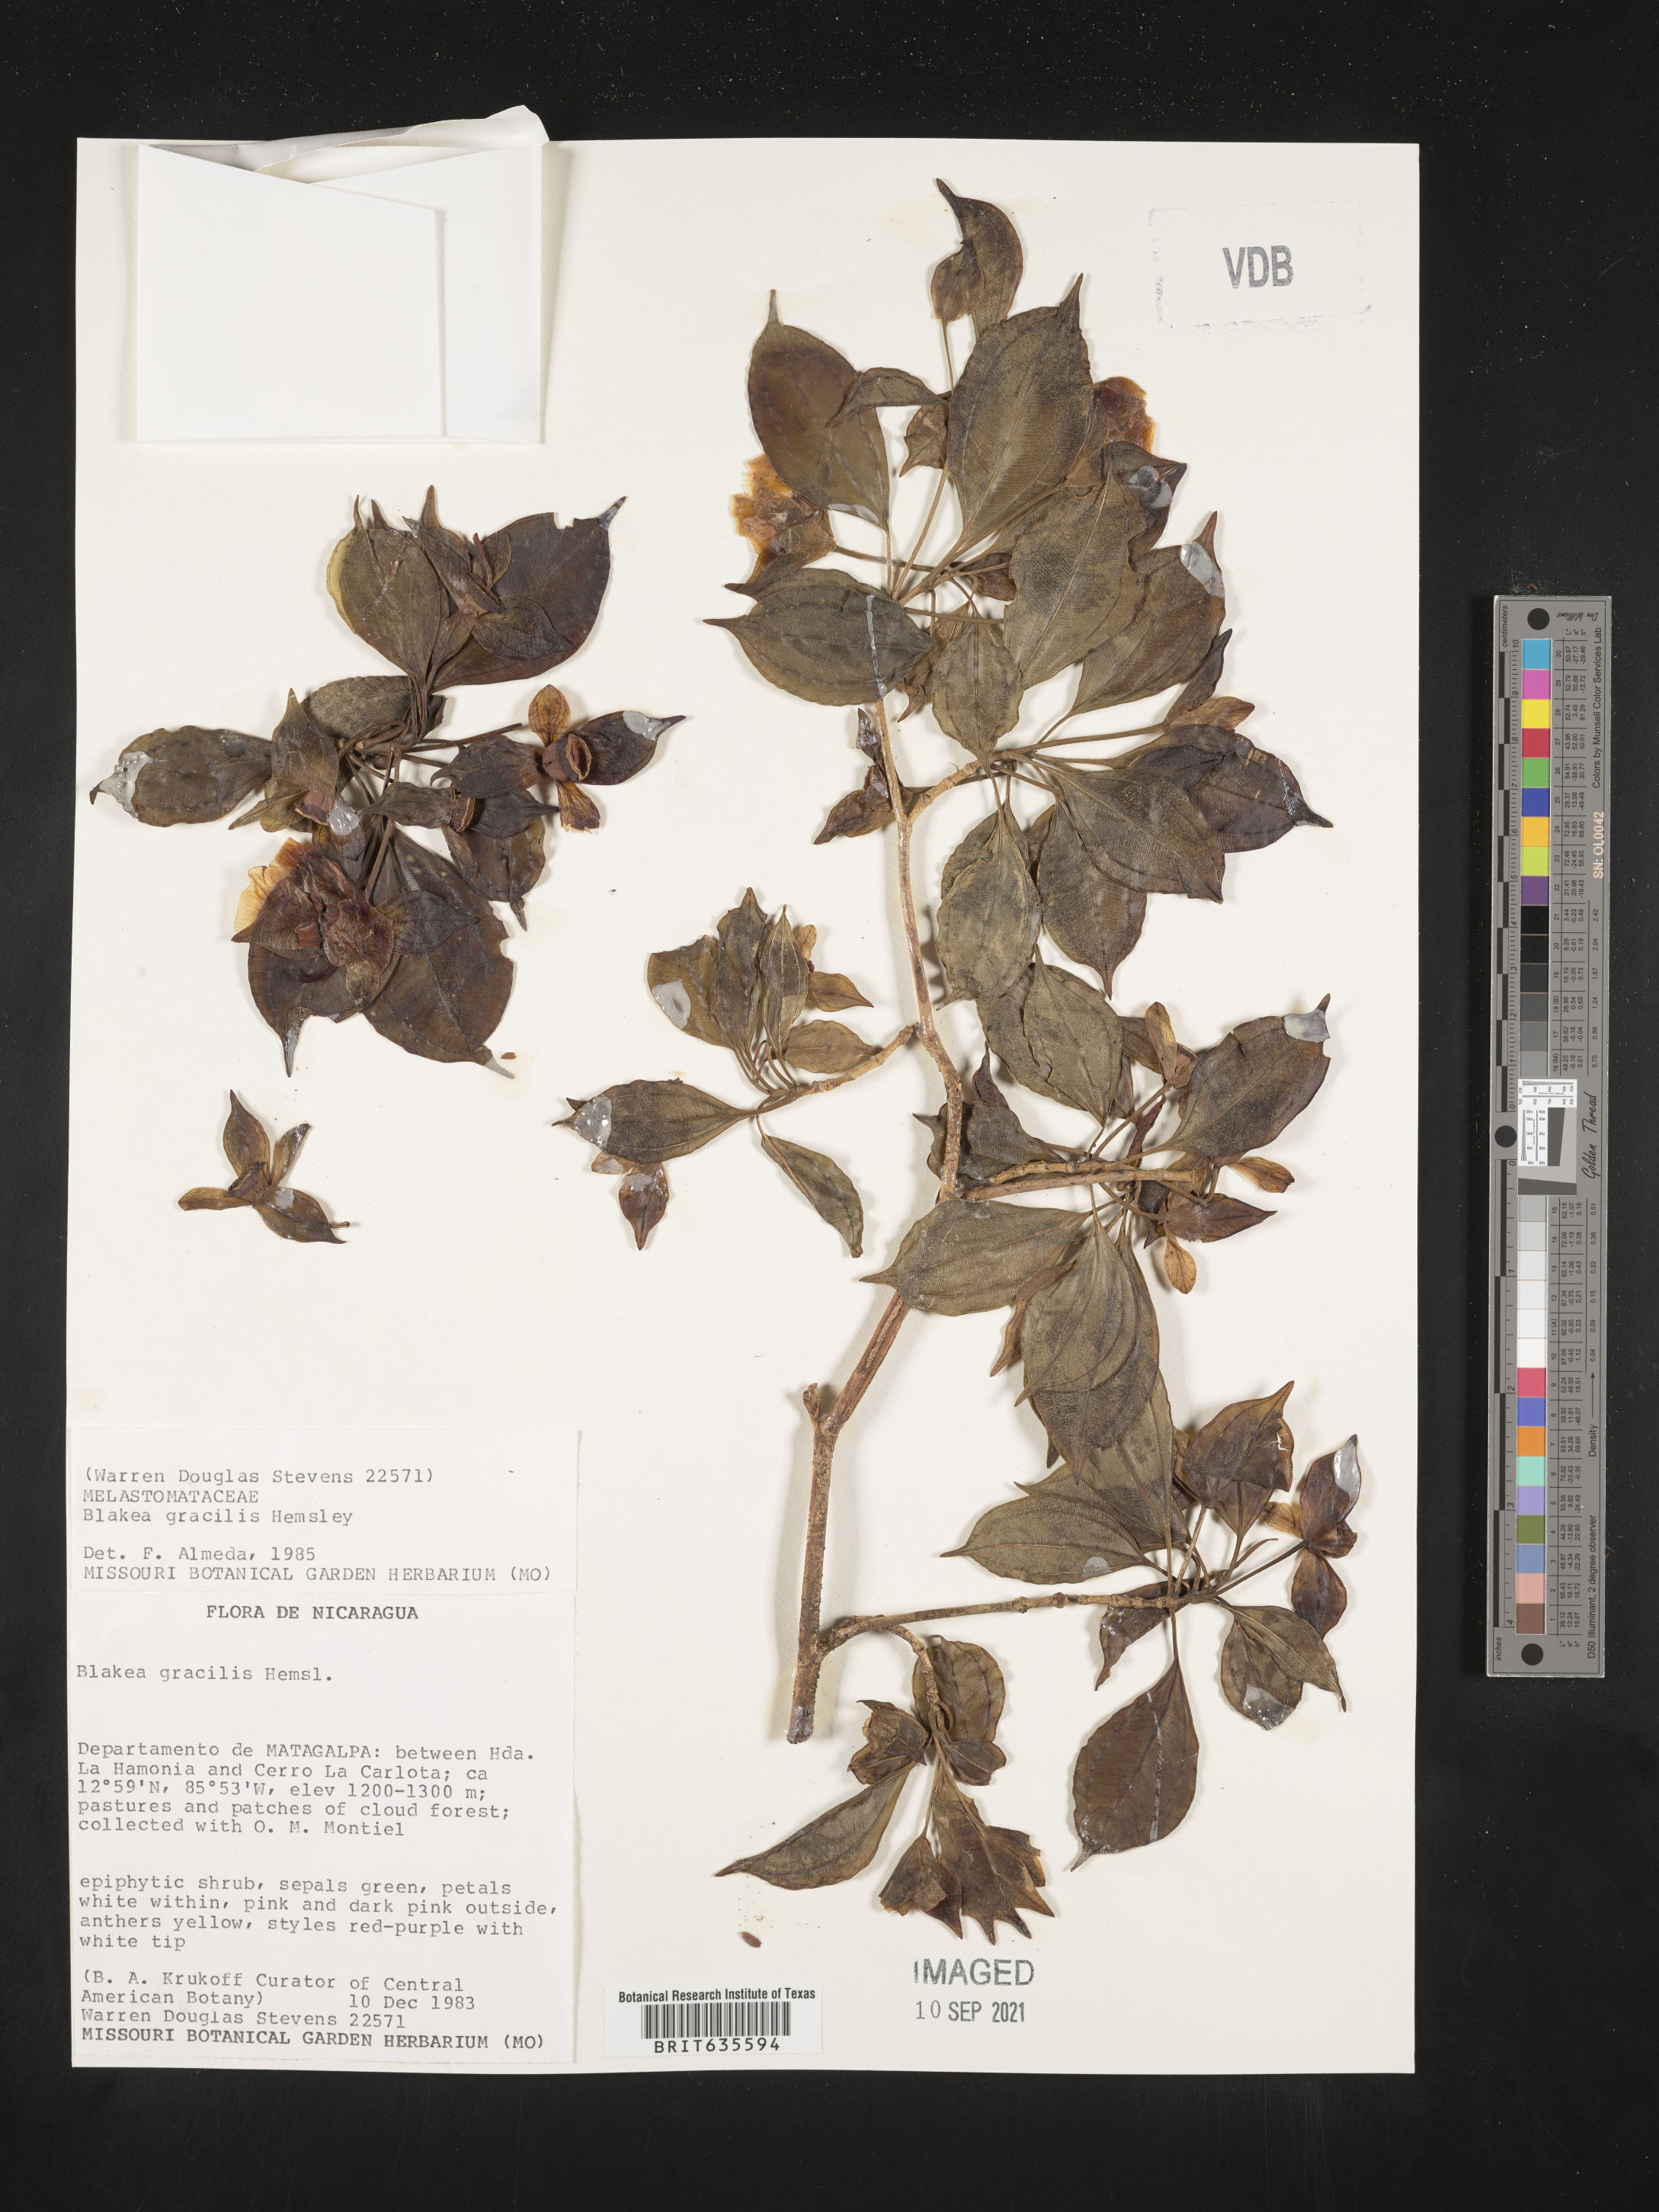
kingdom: Plantae
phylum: Tracheophyta
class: Magnoliopsida
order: Myrtales
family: Melastomataceae
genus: Blakea
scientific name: Blakea
